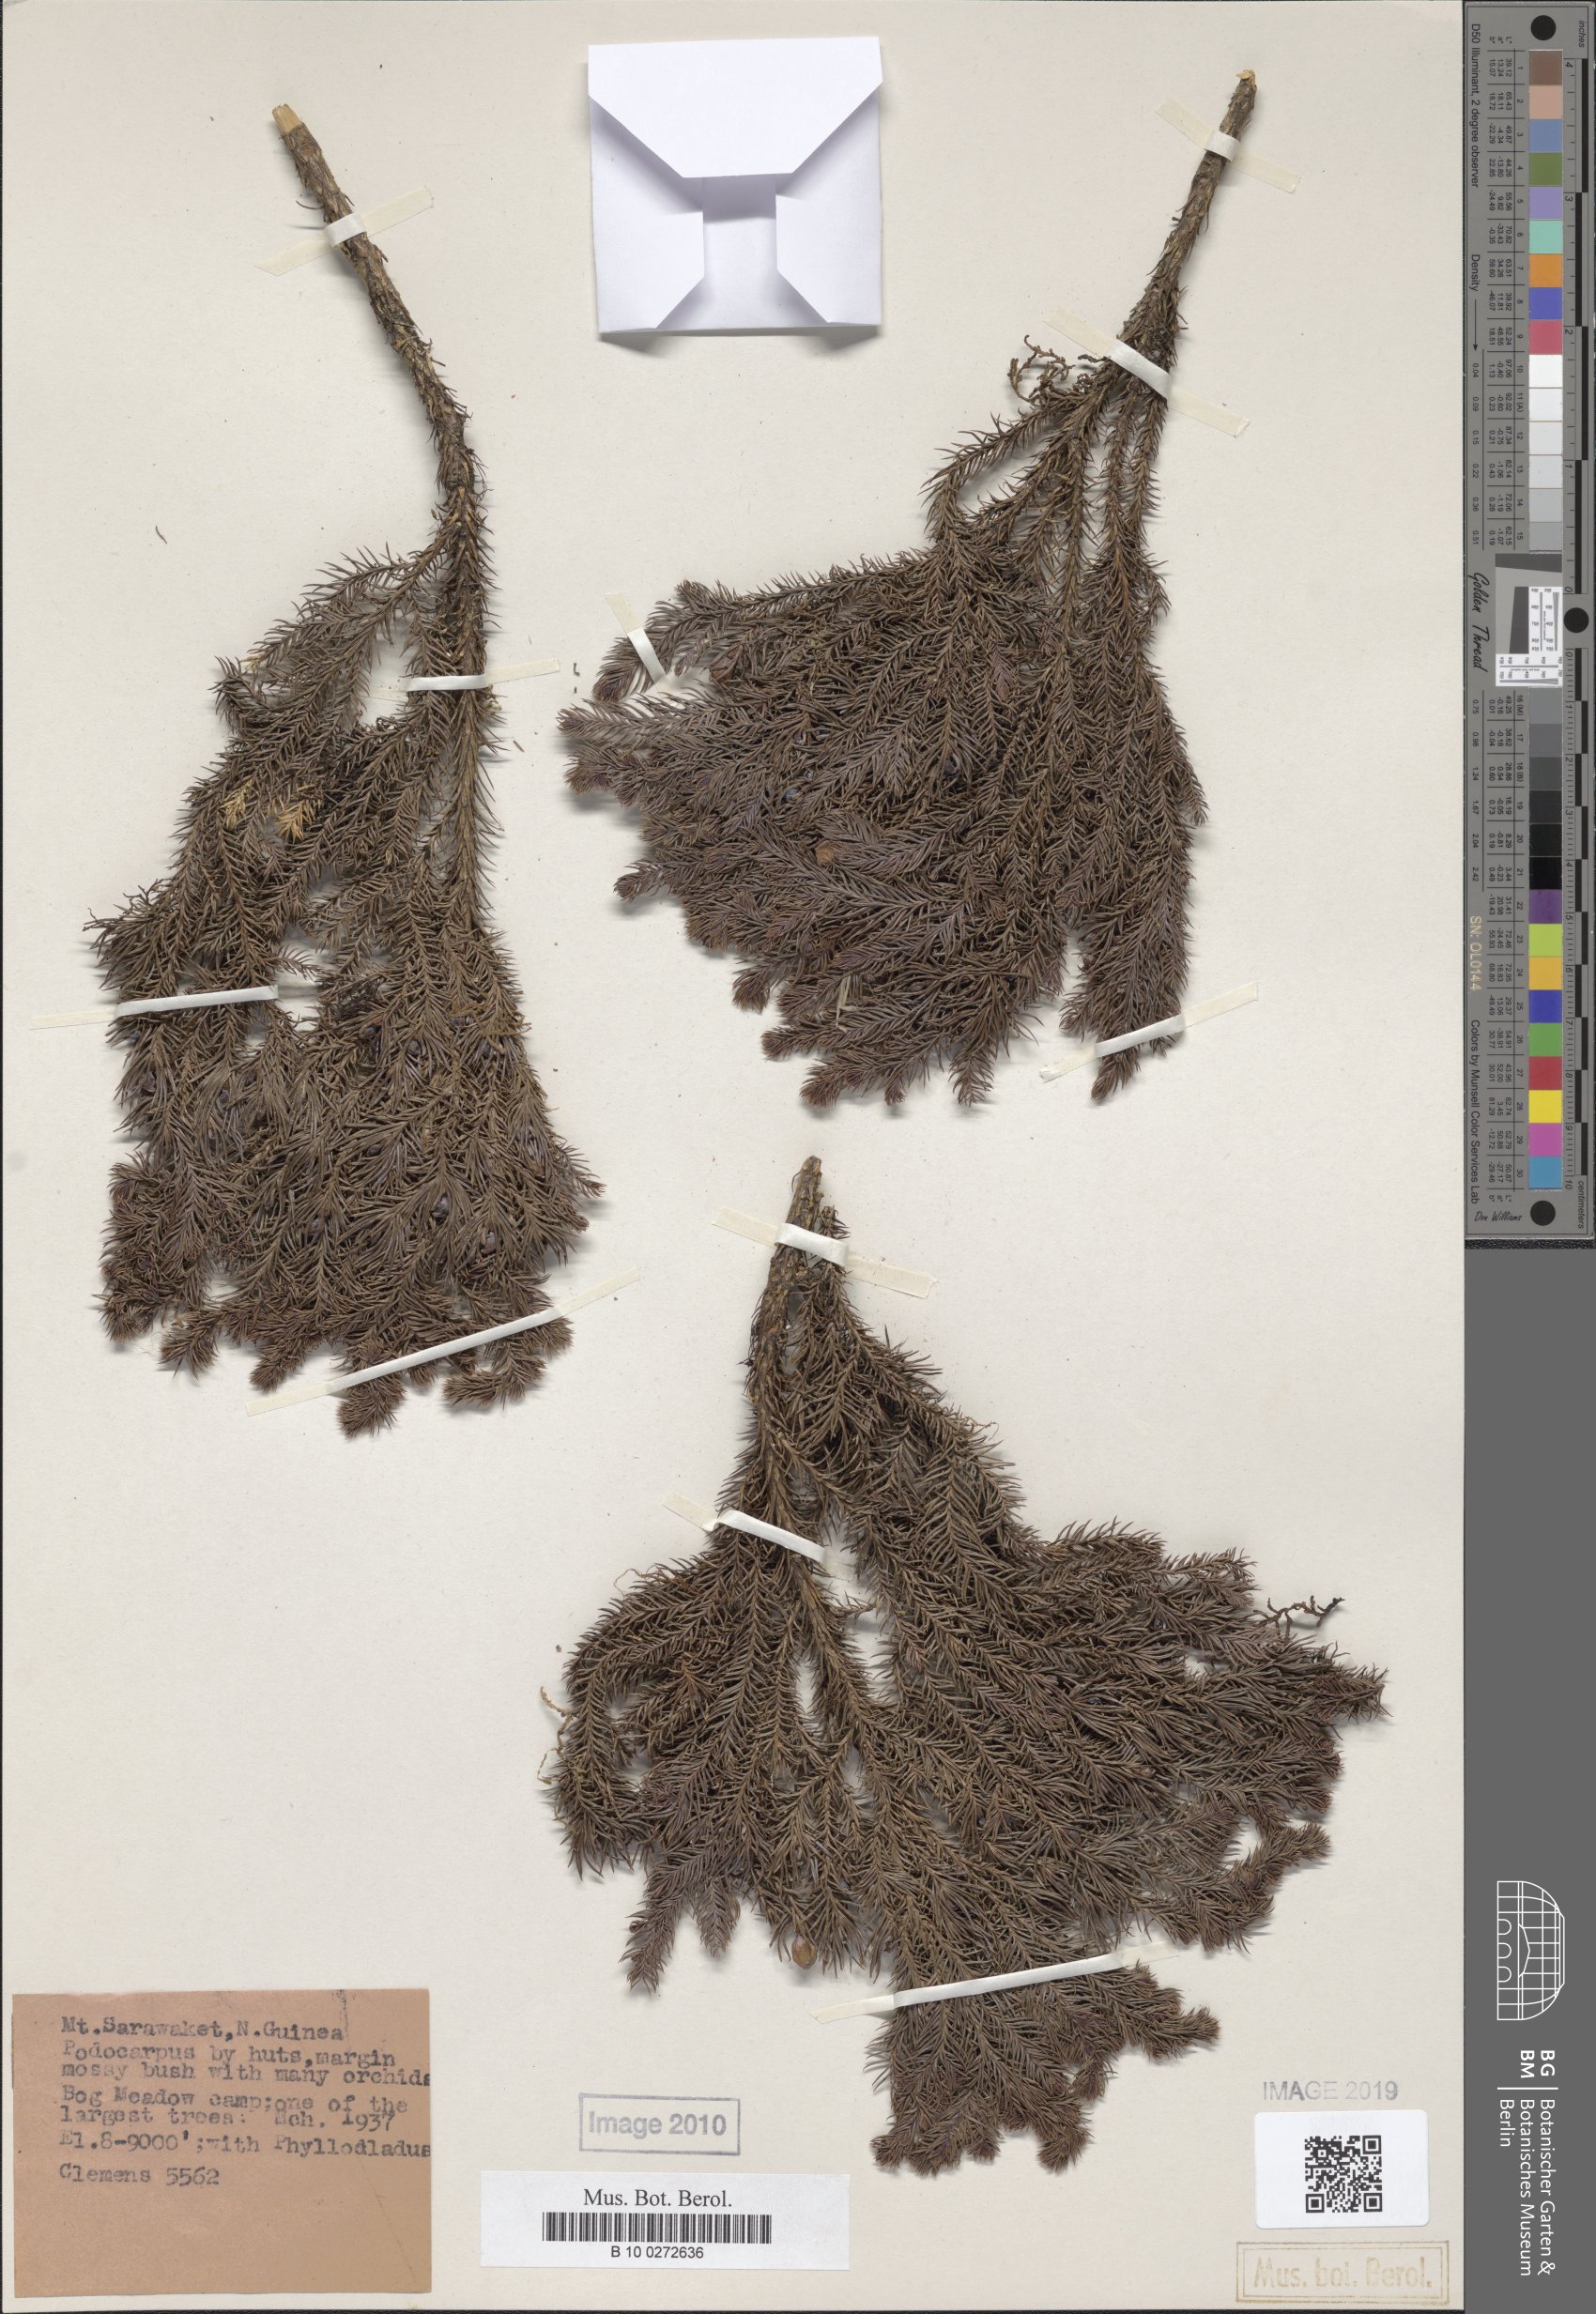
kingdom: Plantae
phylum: Tracheophyta
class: Pinopsida
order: Pinales
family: Podocarpaceae
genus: Dacrycarpus
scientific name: Dacrycarpus cinctus
